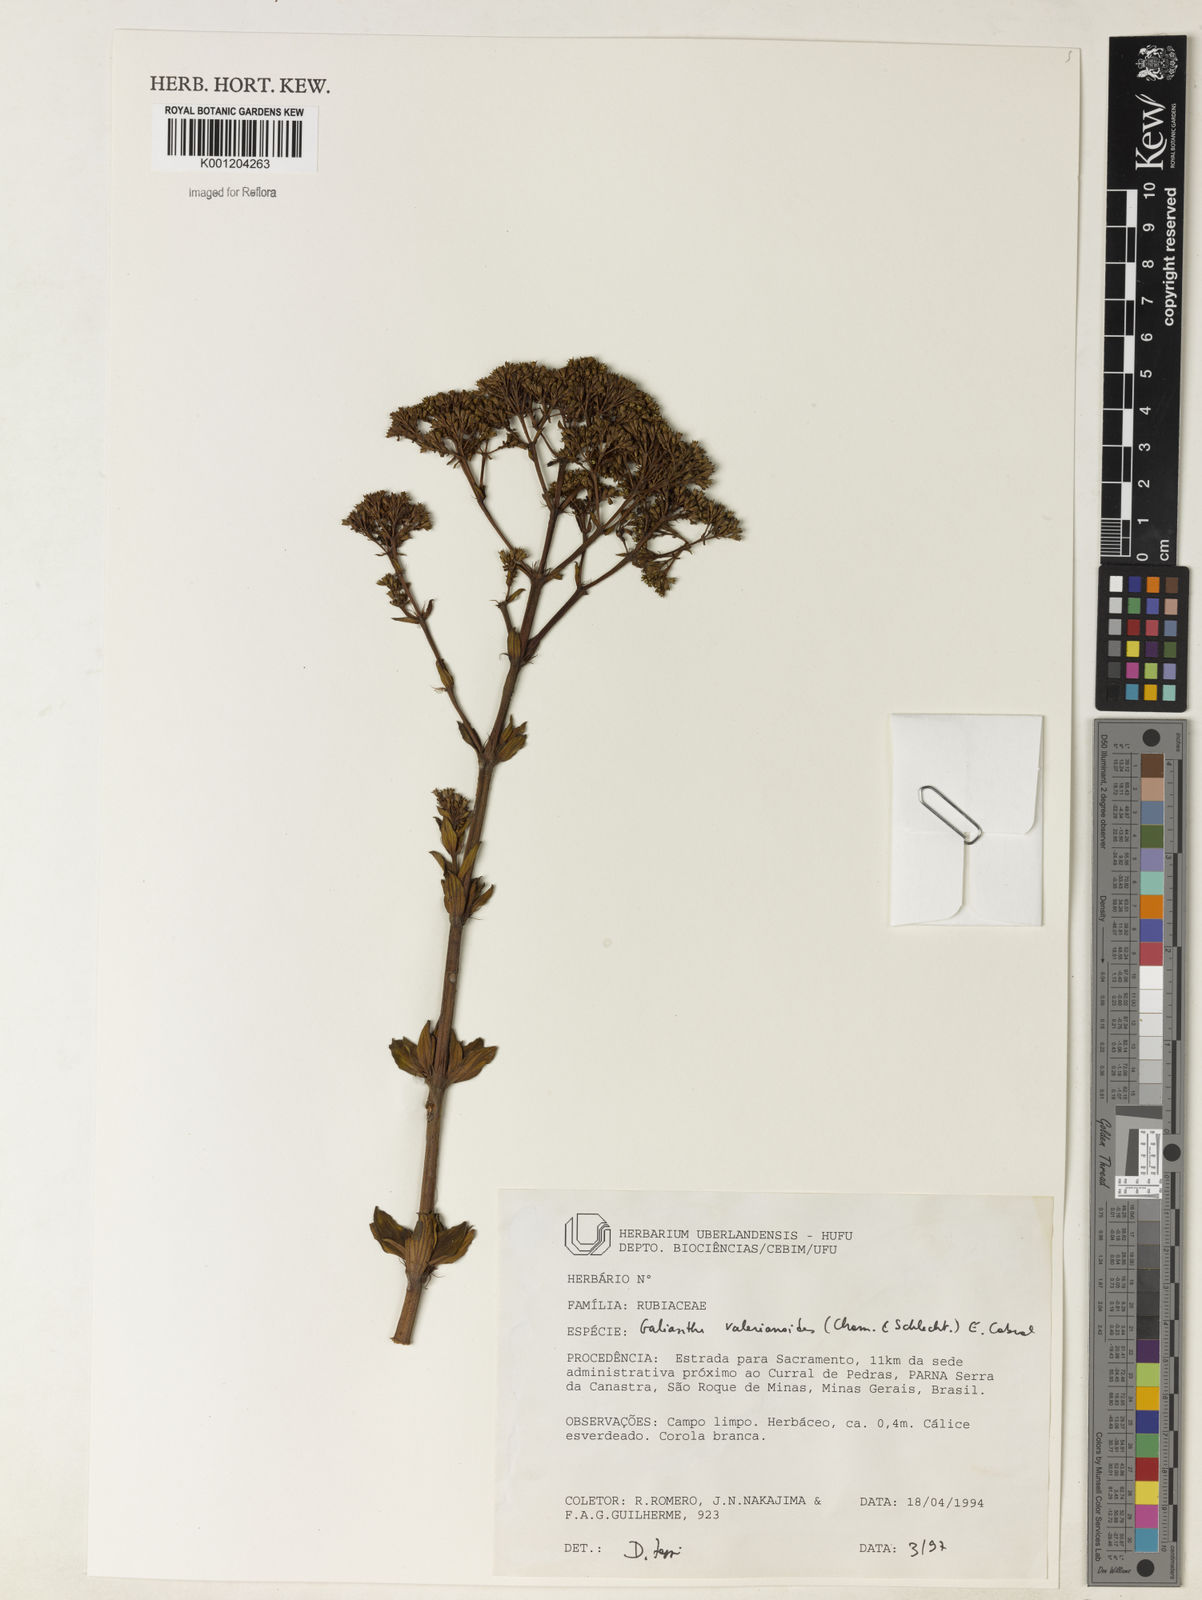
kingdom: Plantae
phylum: Tracheophyta
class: Magnoliopsida
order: Gentianales
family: Rubiaceae
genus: Galianthe
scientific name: Galianthe valerianoides
